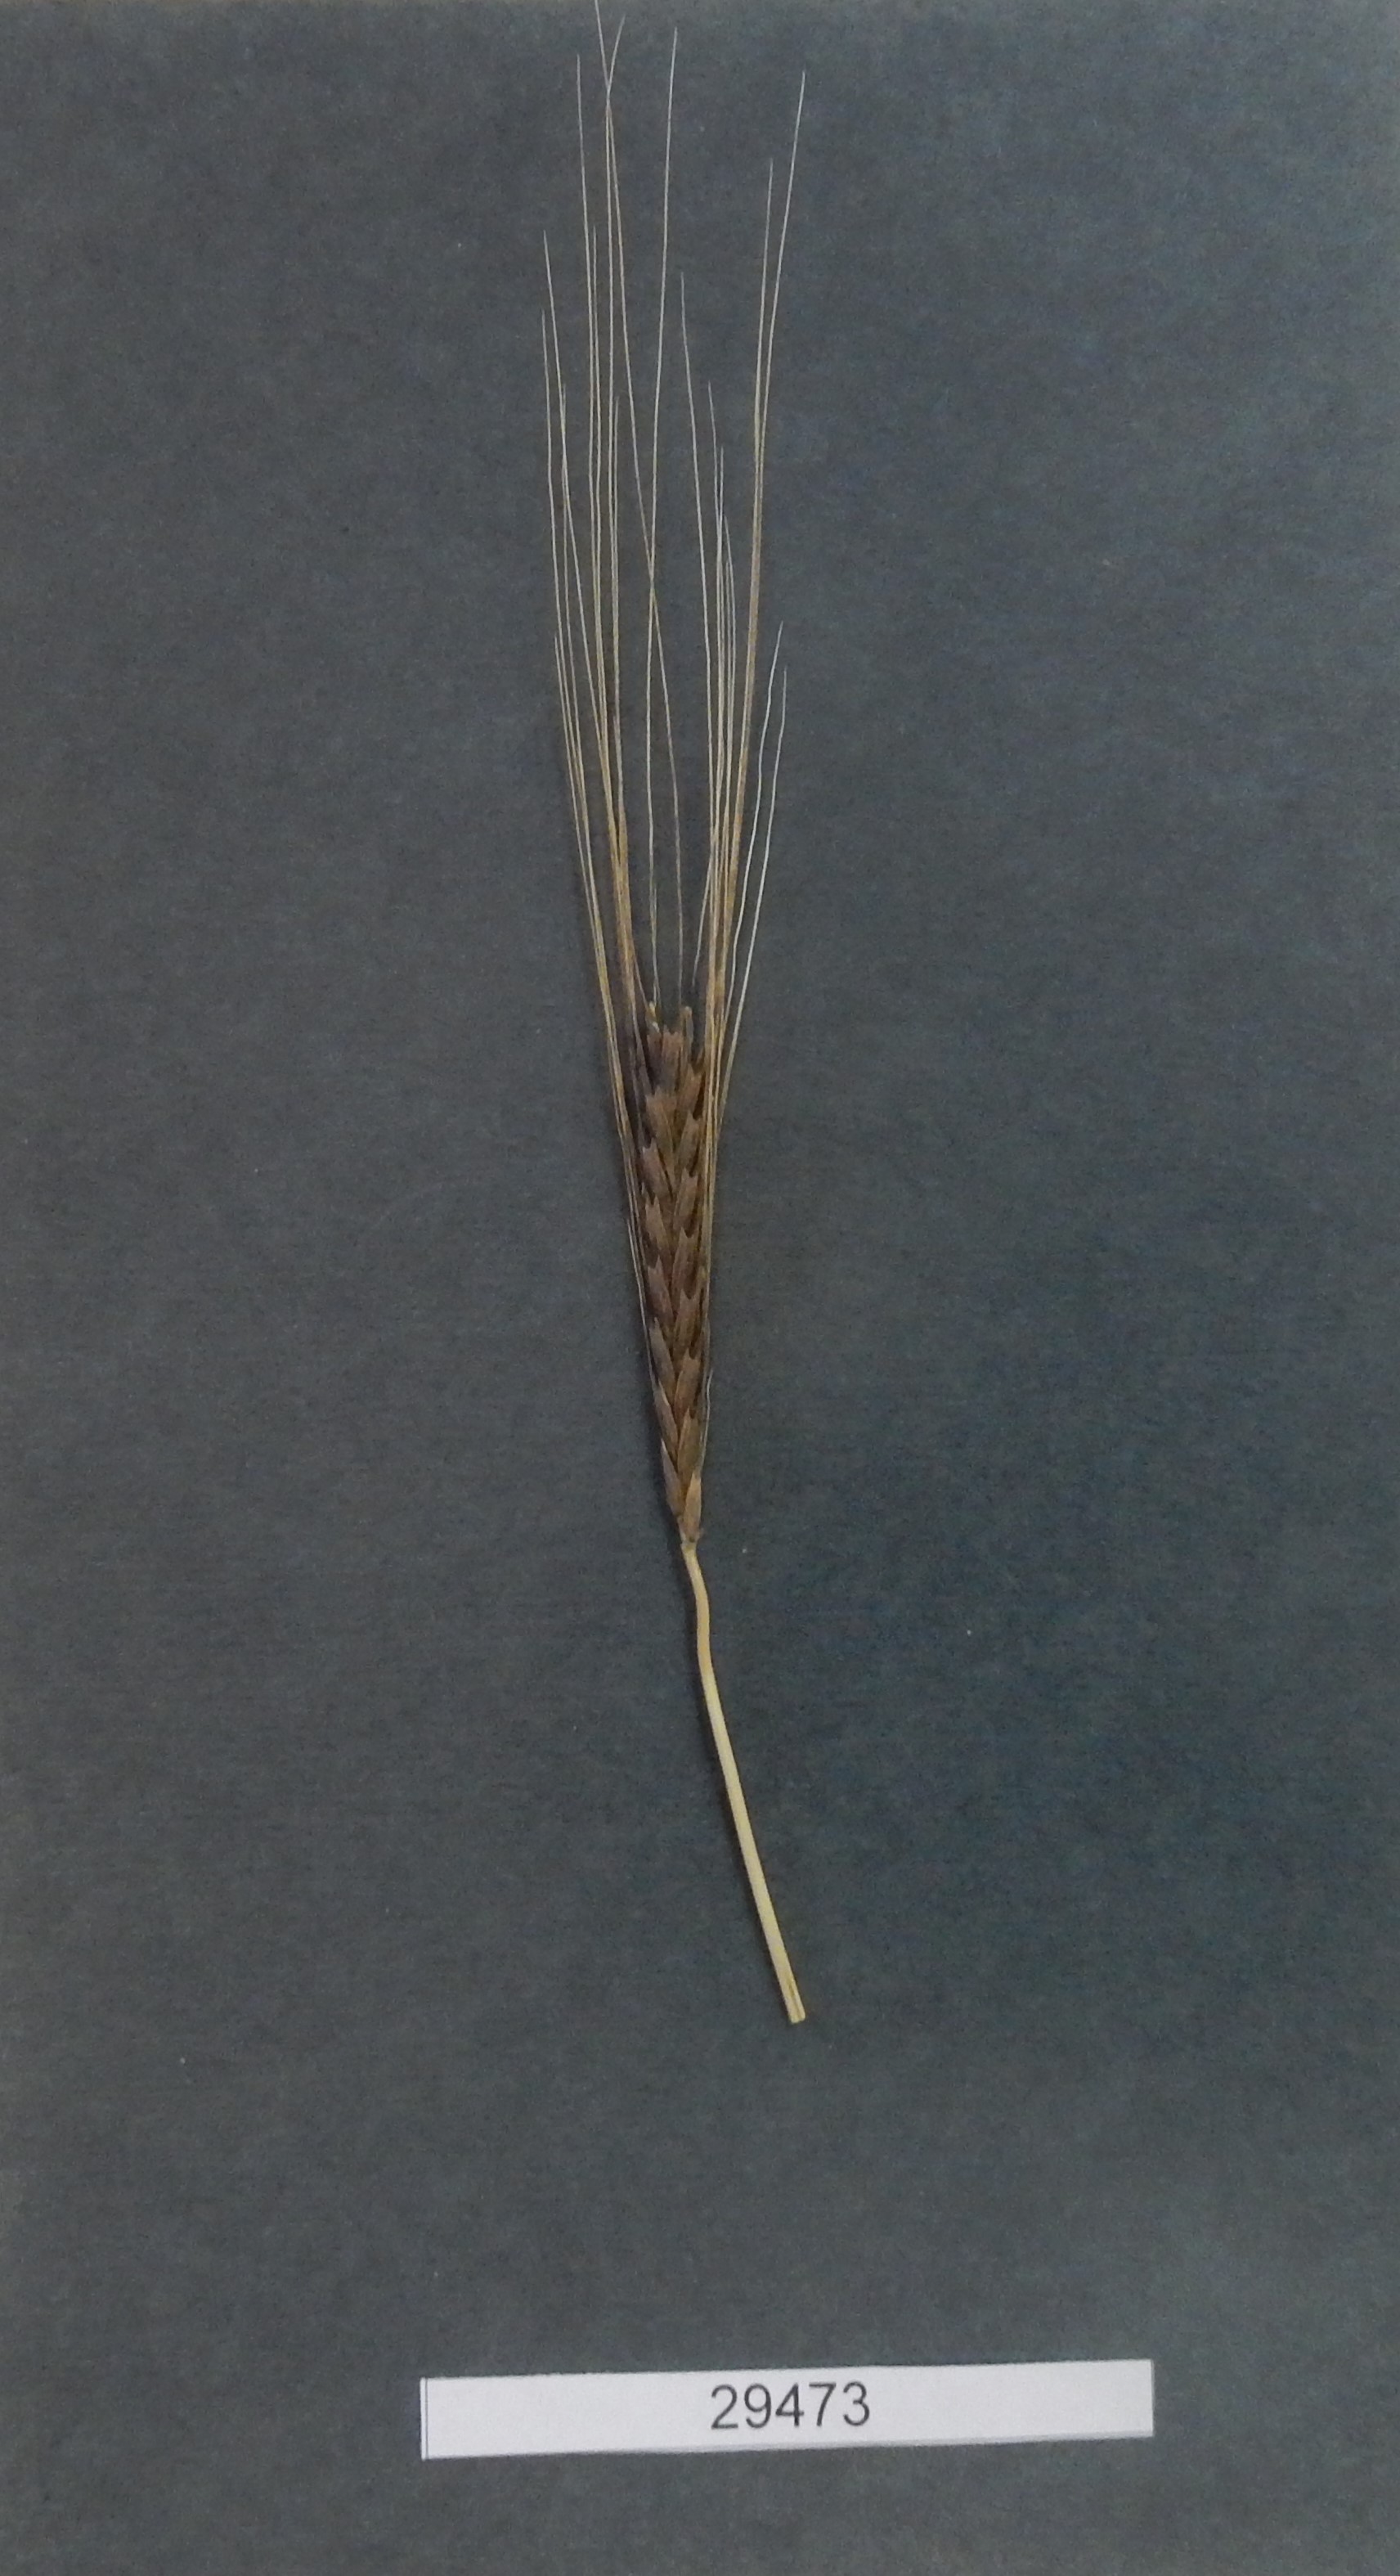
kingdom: Plantae
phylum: Tracheophyta
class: Liliopsida
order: Poales
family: Poaceae
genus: Triticum
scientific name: Triticum monococcum
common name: Wheat
